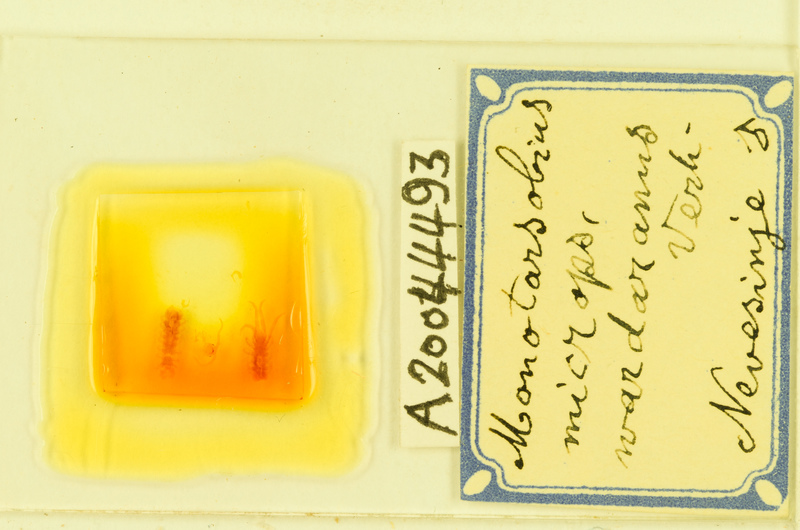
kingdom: Animalia
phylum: Arthropoda
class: Chilopoda
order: Lithobiomorpha
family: Lithobiidae
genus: Monotarsobius
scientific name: Monotarsobius microps
